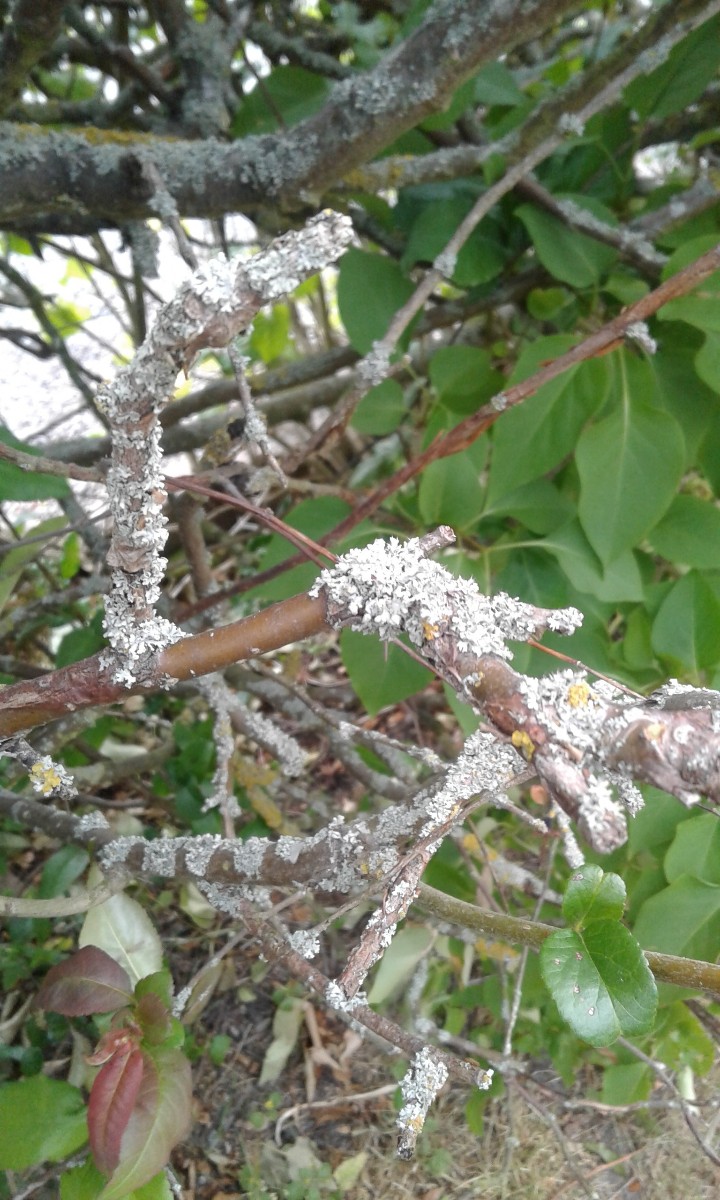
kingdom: Fungi
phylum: Ascomycota
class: Lecanoromycetes
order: Caliciales
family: Physciaceae
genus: Physcia
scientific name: Physcia adscendens
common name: hætte-rosetlav
